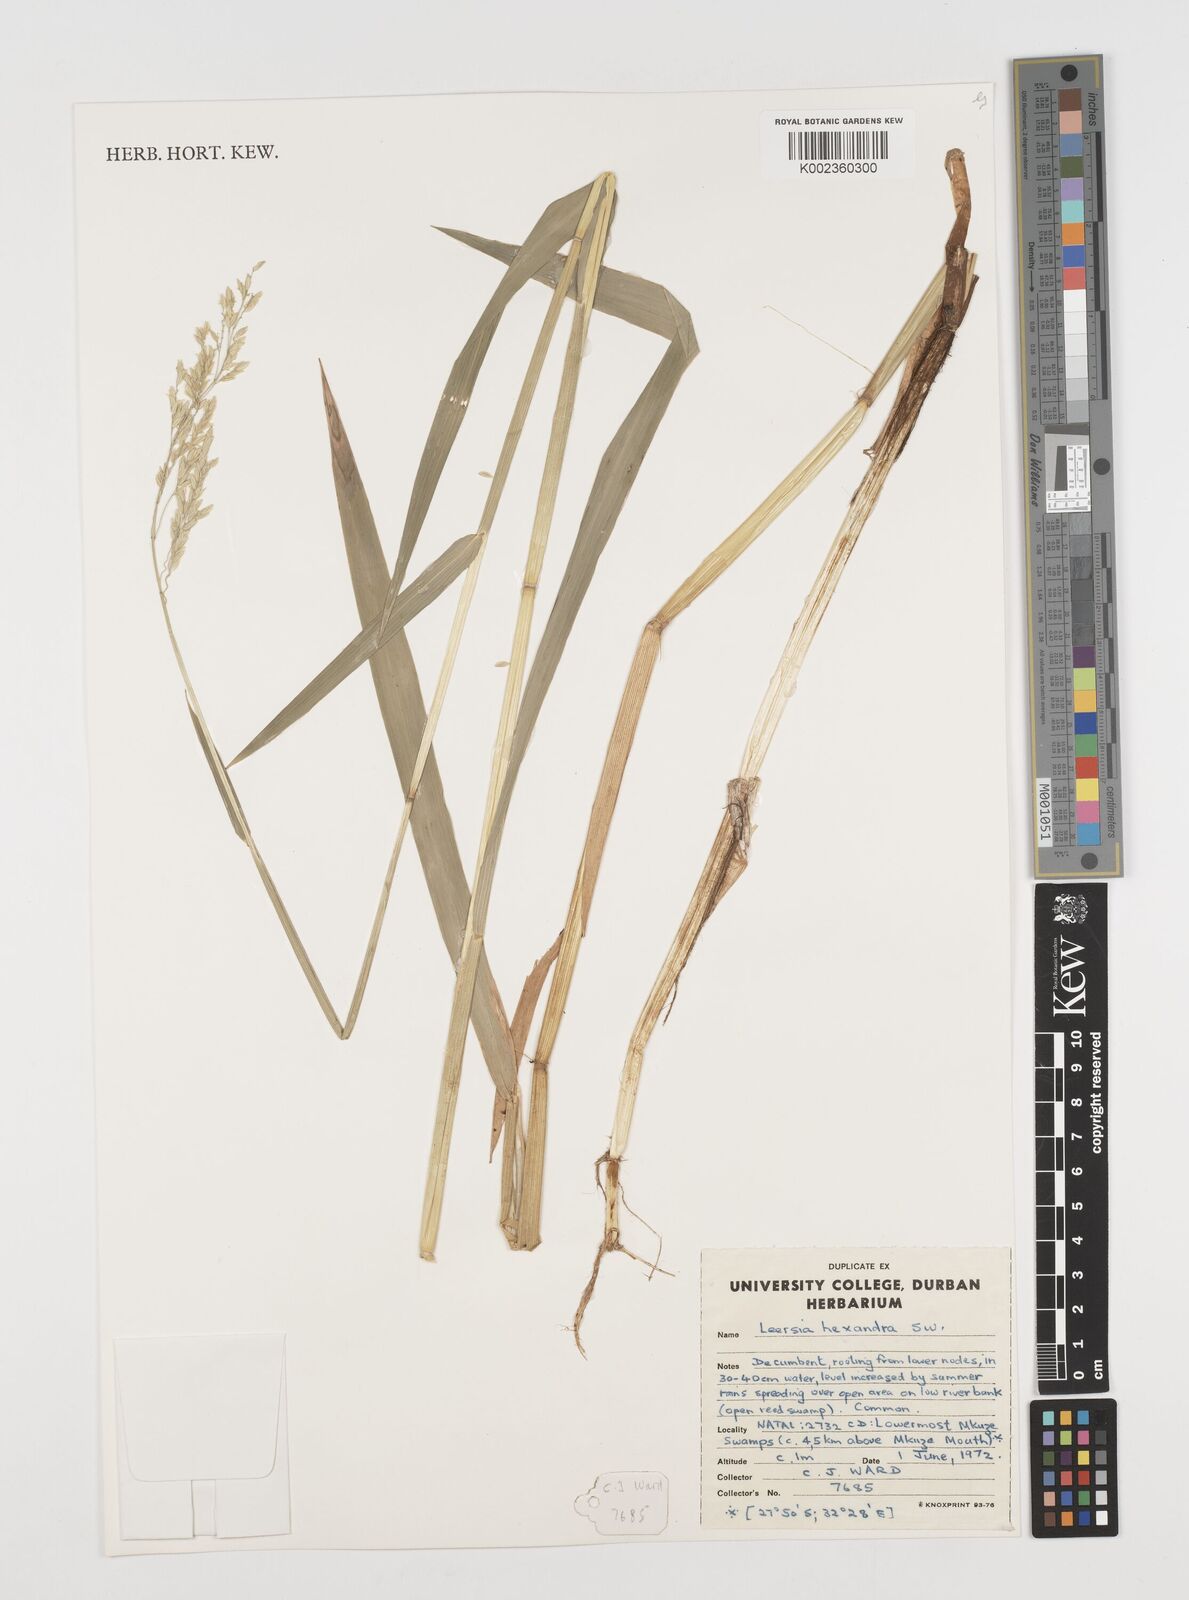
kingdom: Plantae
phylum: Tracheophyta
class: Liliopsida
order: Poales
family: Poaceae
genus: Leersia
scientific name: Leersia hexandra
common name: Southern cut grass
